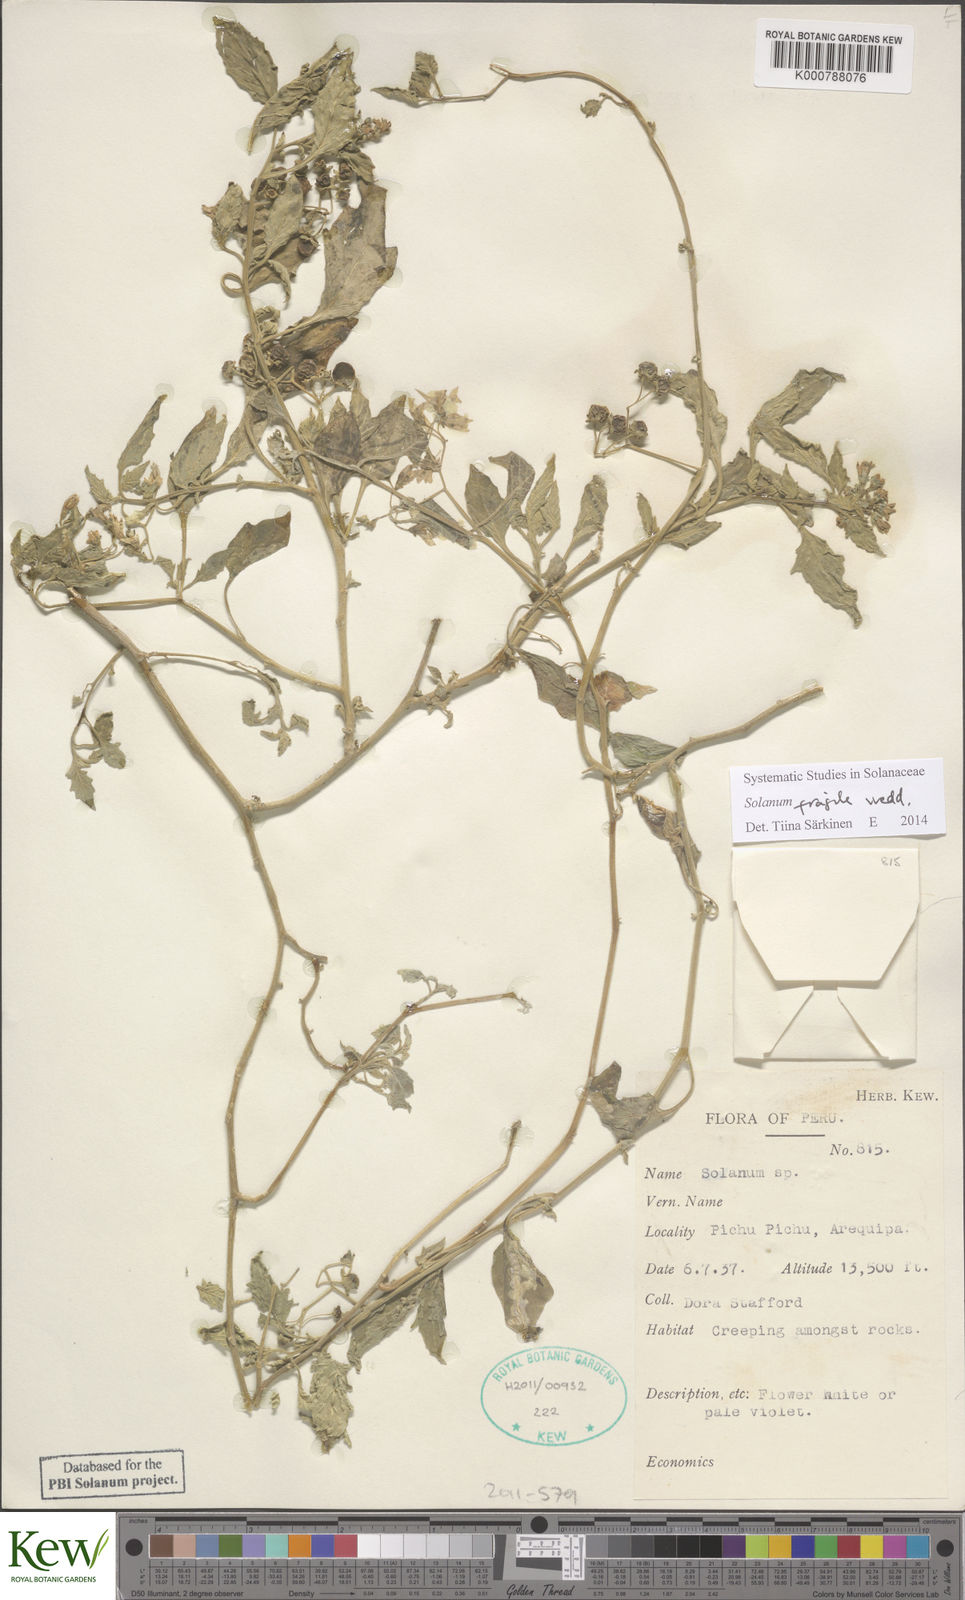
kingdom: Plantae
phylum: Tracheophyta
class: Magnoliopsida
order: Solanales
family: Solanaceae
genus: Solanum
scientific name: Solanum fragile
